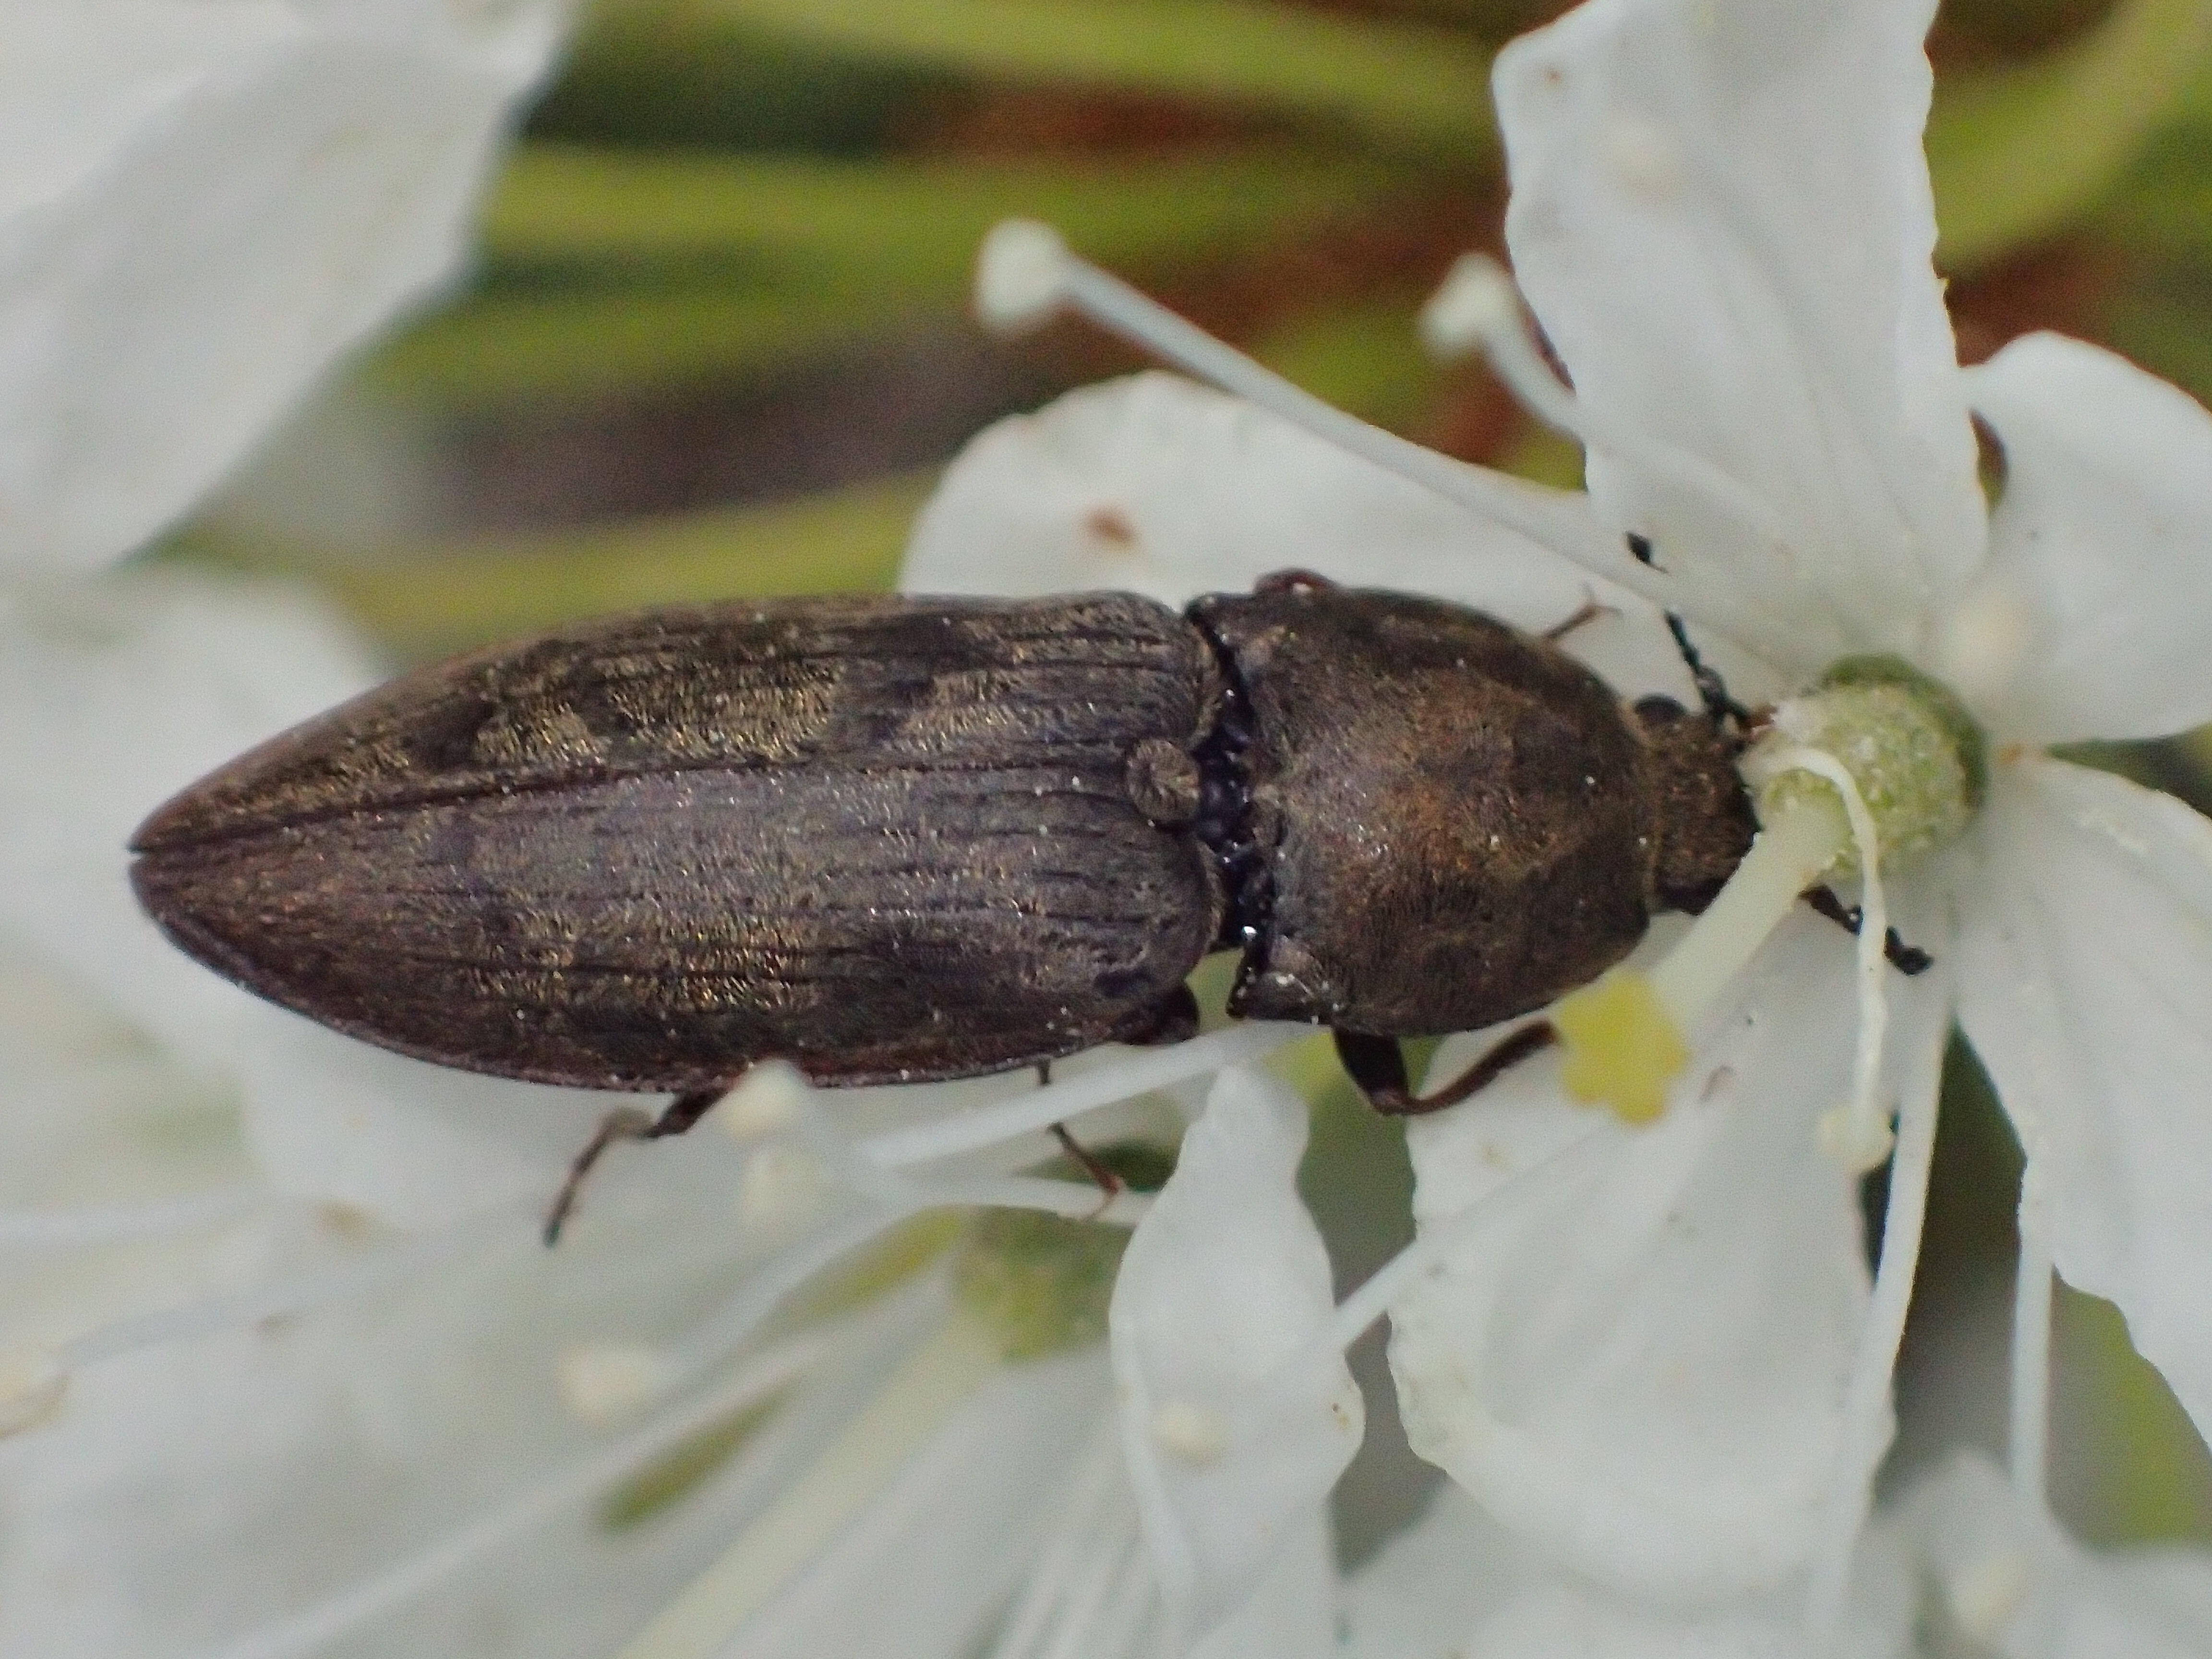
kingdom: Animalia
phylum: Arthropoda
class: Insecta
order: Coleoptera
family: Elateridae
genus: Prosternon
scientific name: Prosternon tessellatum
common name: Chequered click beetle
